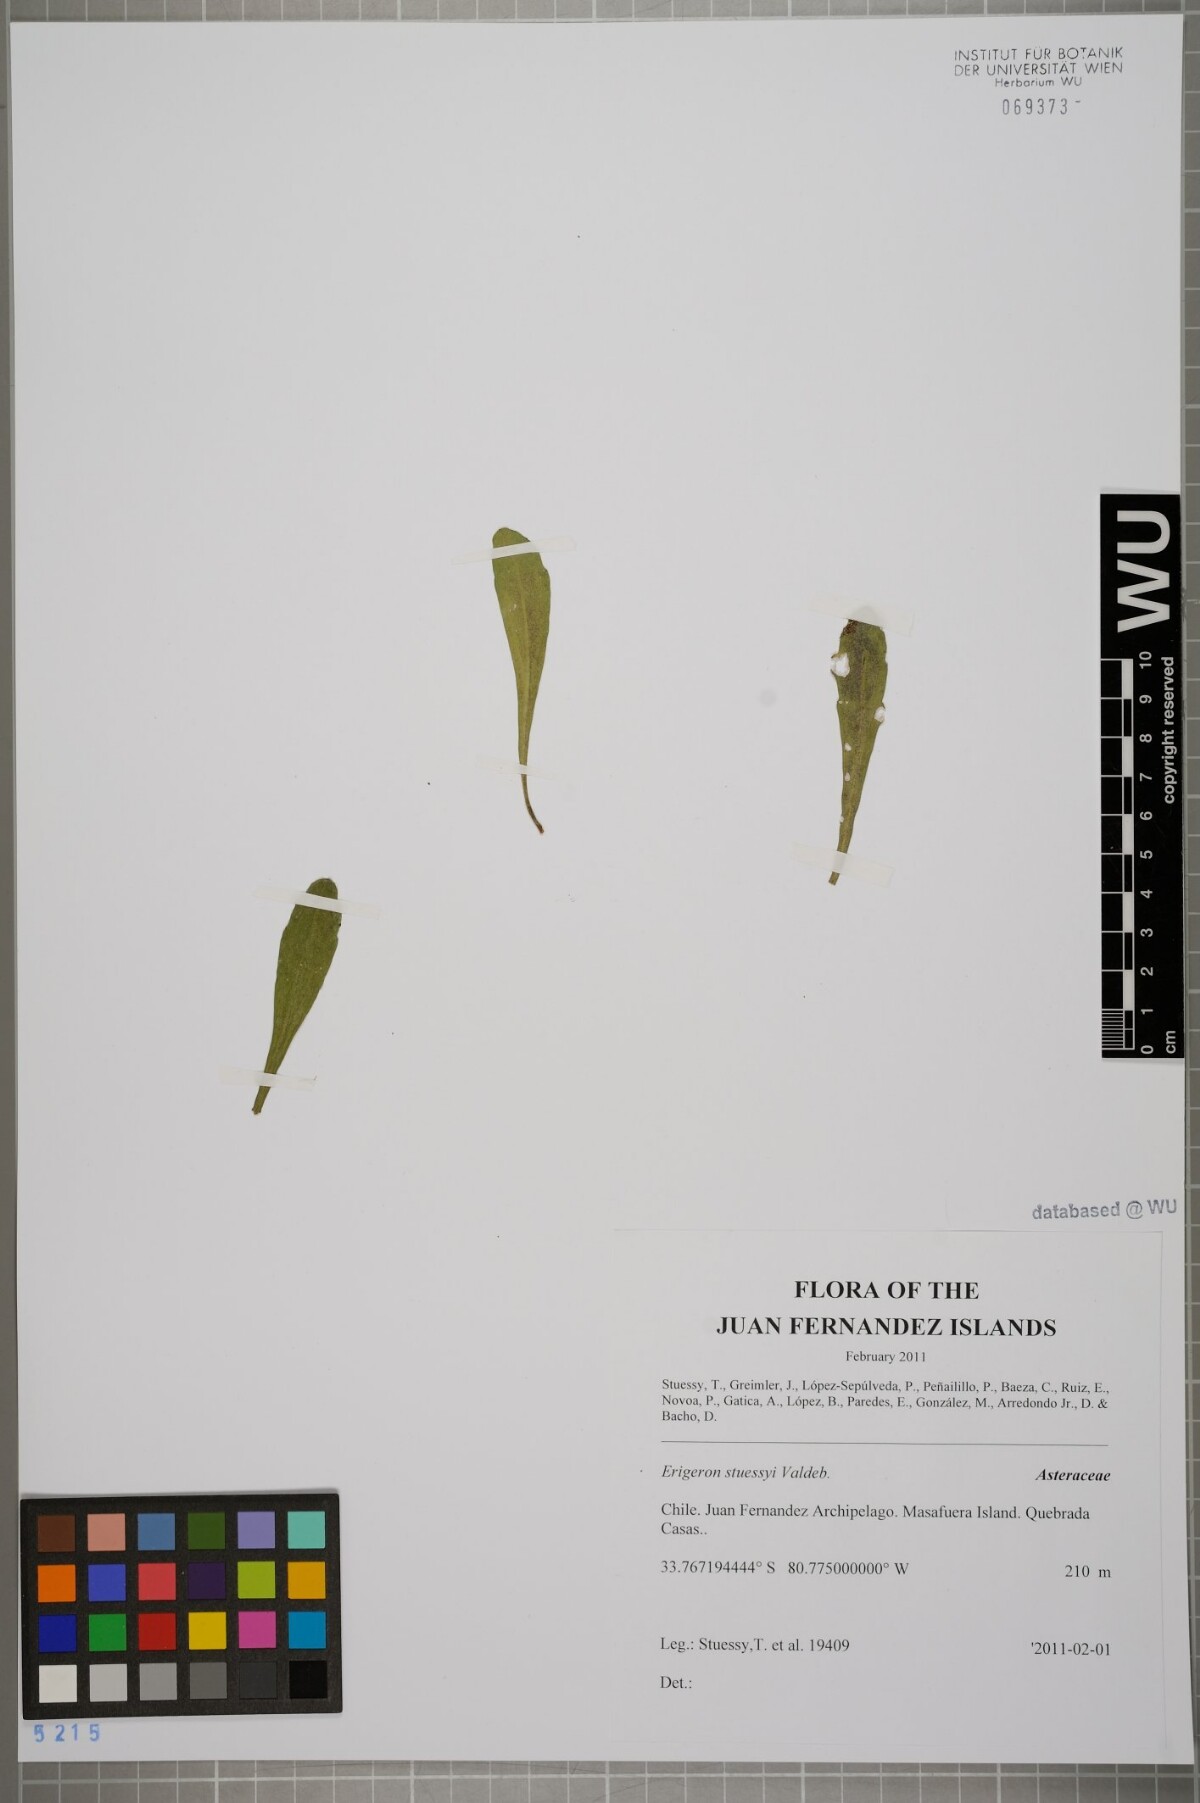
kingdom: Plantae
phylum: Tracheophyta
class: Magnoliopsida
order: Asterales
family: Asteraceae
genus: Erigeron
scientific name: Erigeron stuessyi
